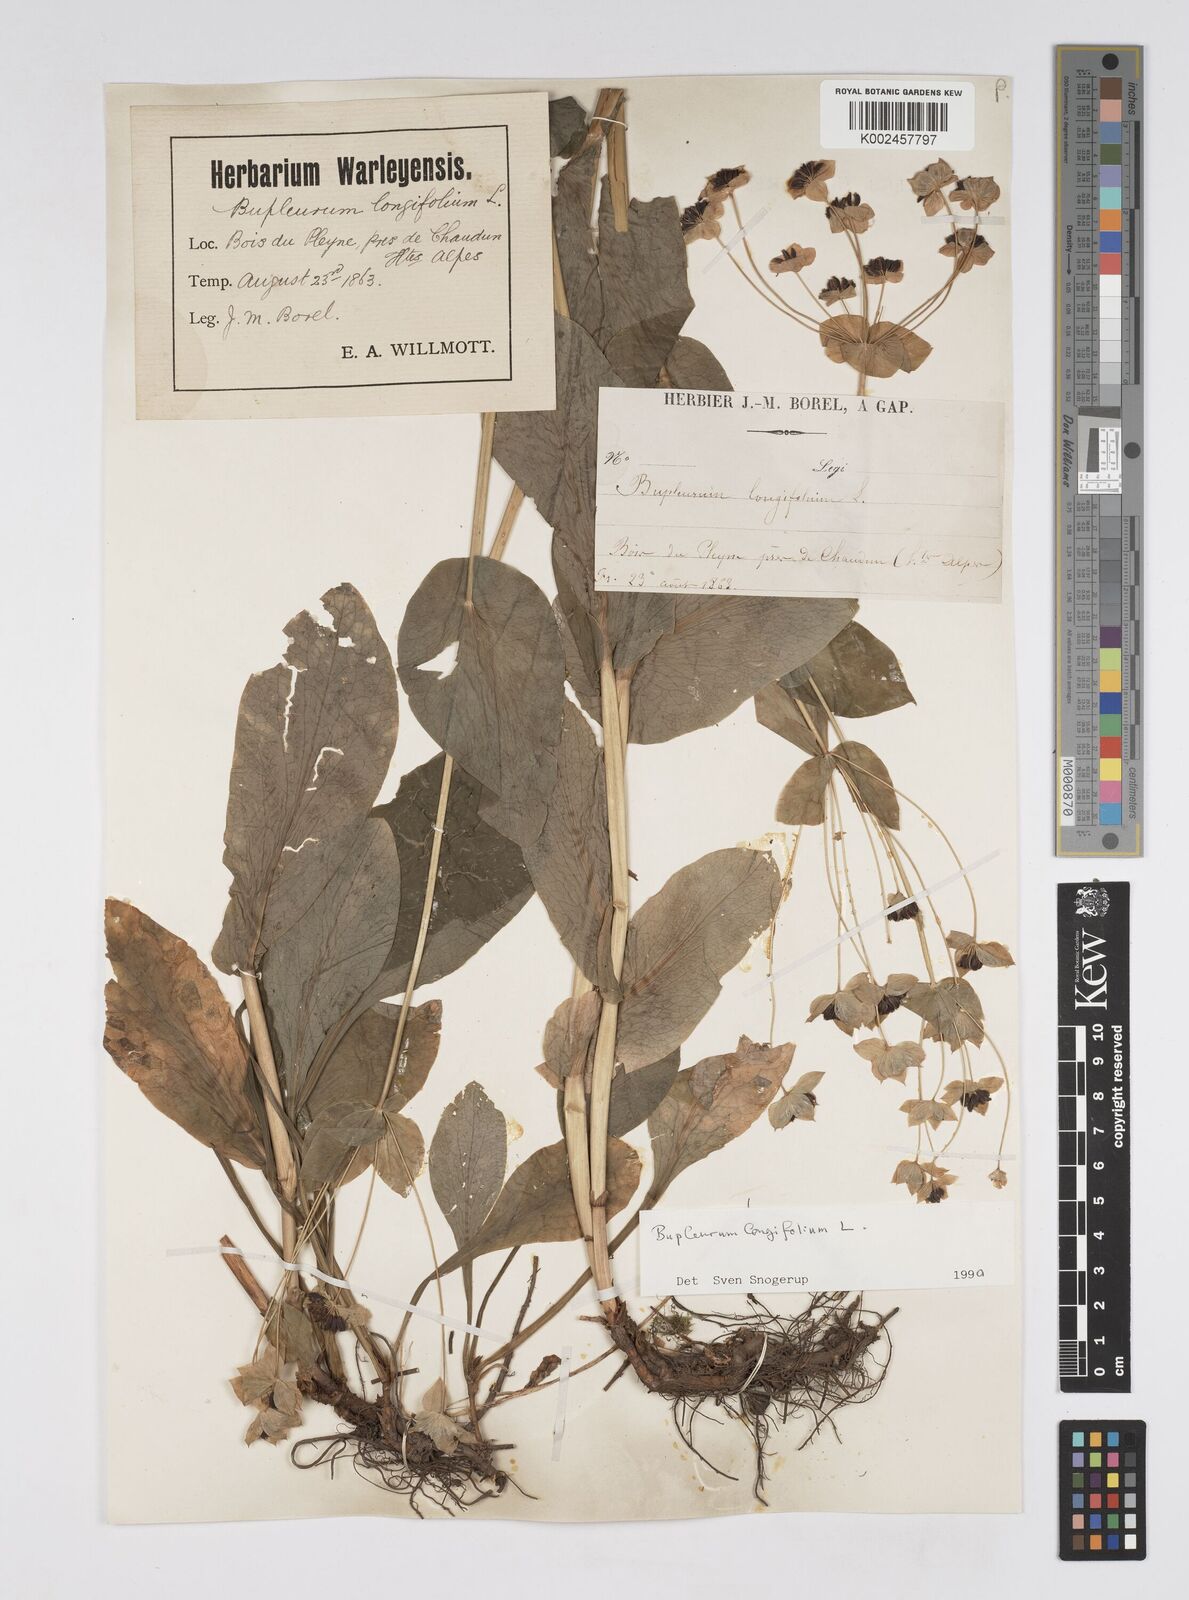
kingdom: Plantae
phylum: Tracheophyta
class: Magnoliopsida
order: Apiales
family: Apiaceae
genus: Bupleurum
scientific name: Bupleurum longifolium
